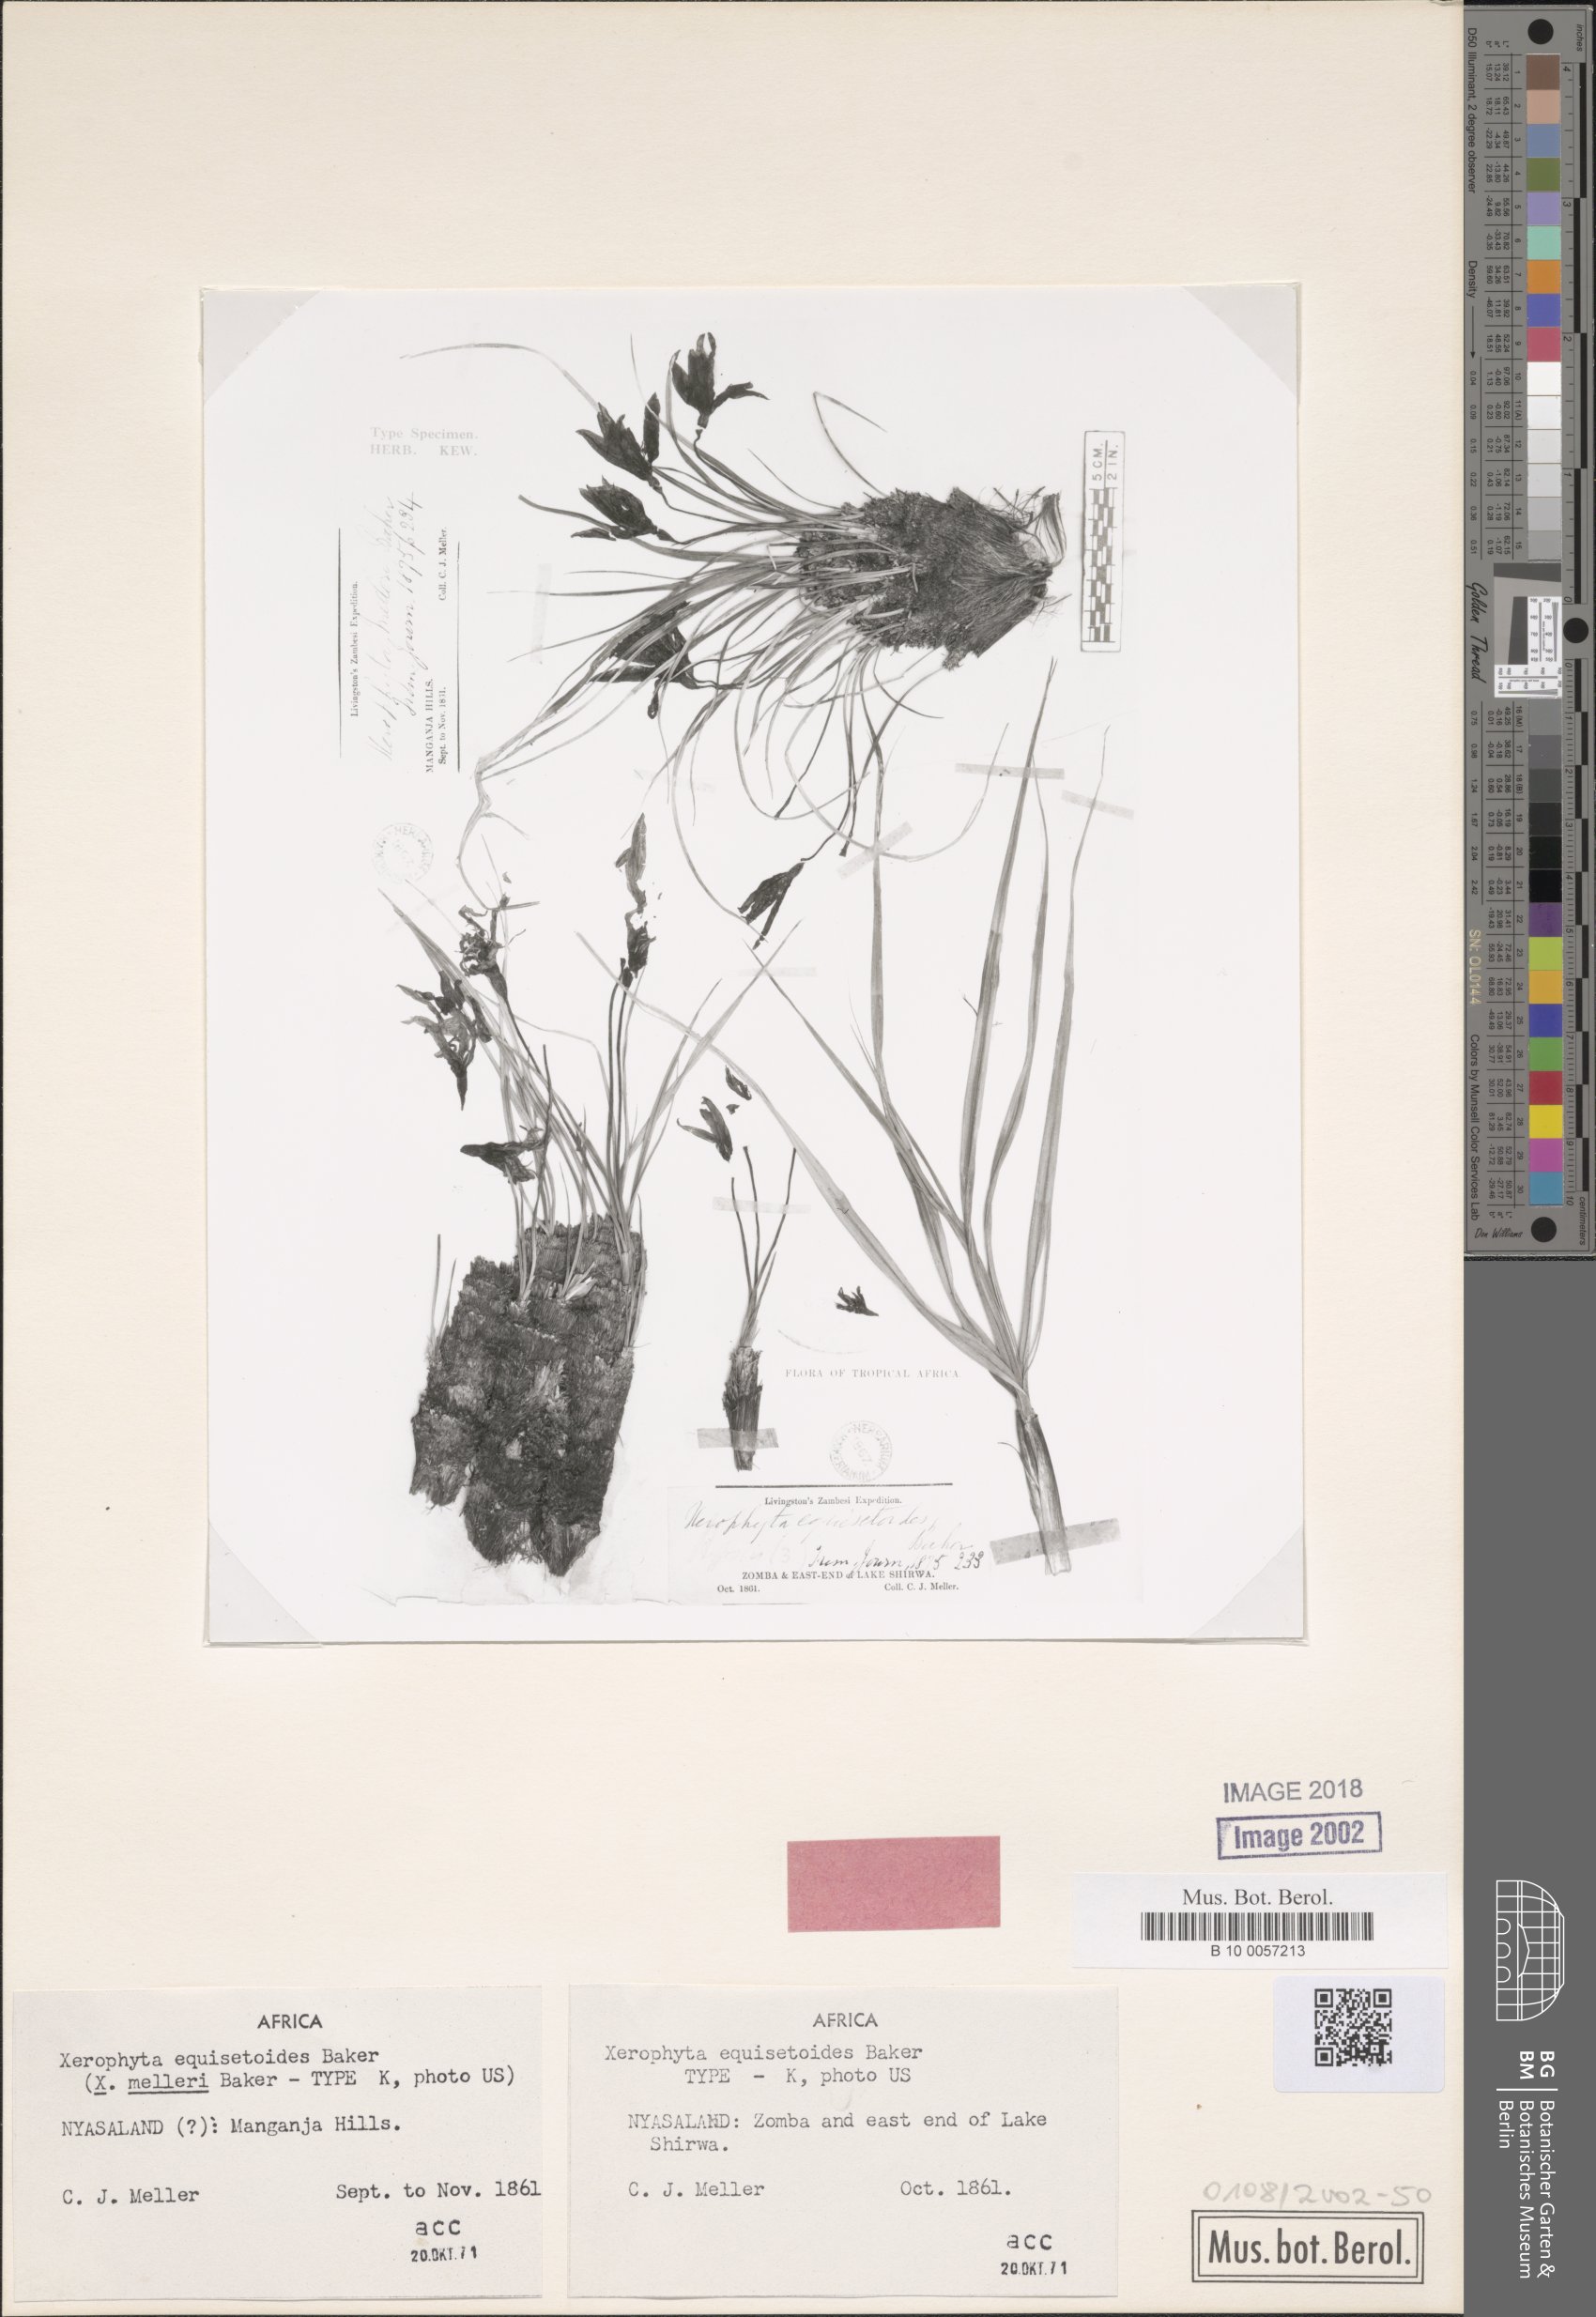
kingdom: Plantae
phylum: Tracheophyta
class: Liliopsida
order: Pandanales
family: Velloziaceae
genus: Xerophyta
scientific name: Xerophyta equisetoides
